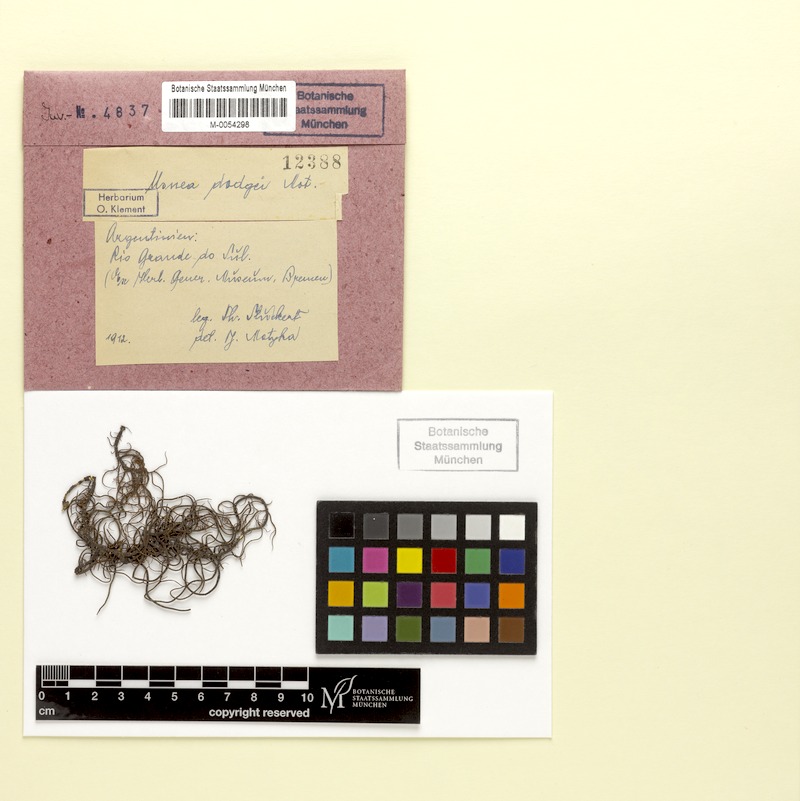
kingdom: Fungi
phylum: Ascomycota
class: Lecanoromycetes
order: Lecanorales
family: Parmeliaceae
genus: Usnea
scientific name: Usnea dodgei
